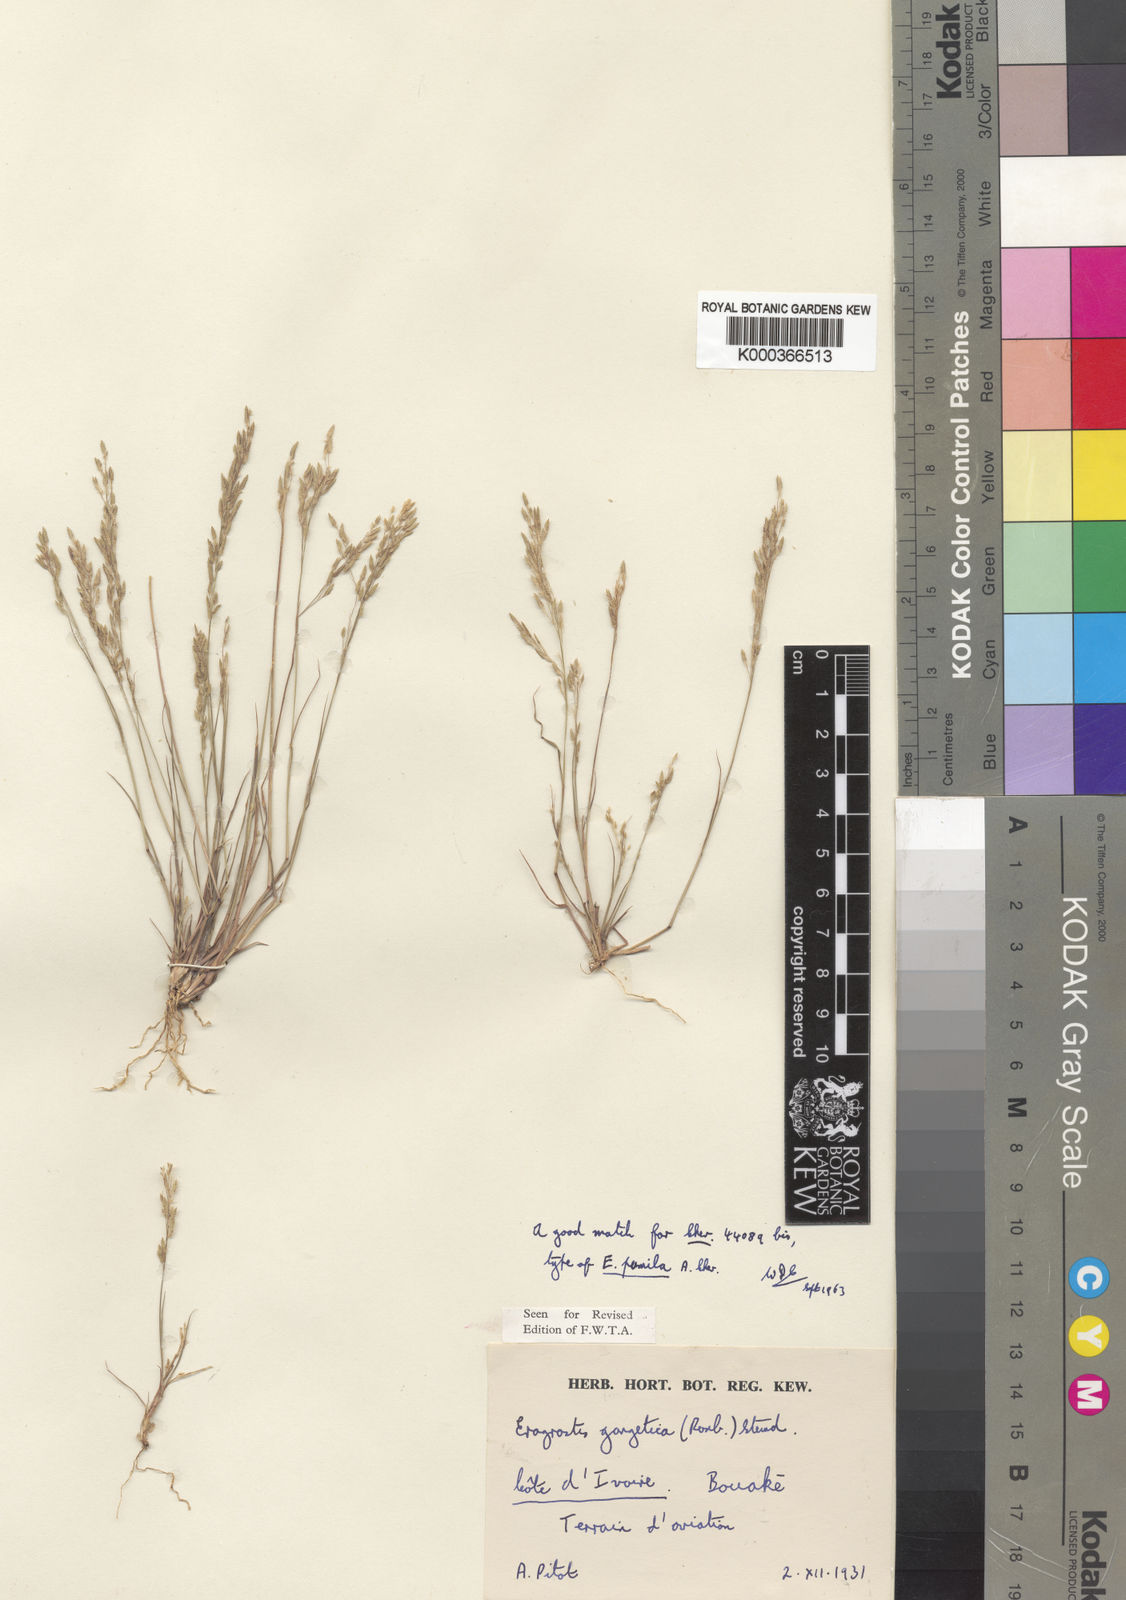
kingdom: Plantae
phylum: Tracheophyta
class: Liliopsida
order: Poales
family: Poaceae
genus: Eragrostis
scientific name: Eragrostis gangetica
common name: Slimflower lovegrass
